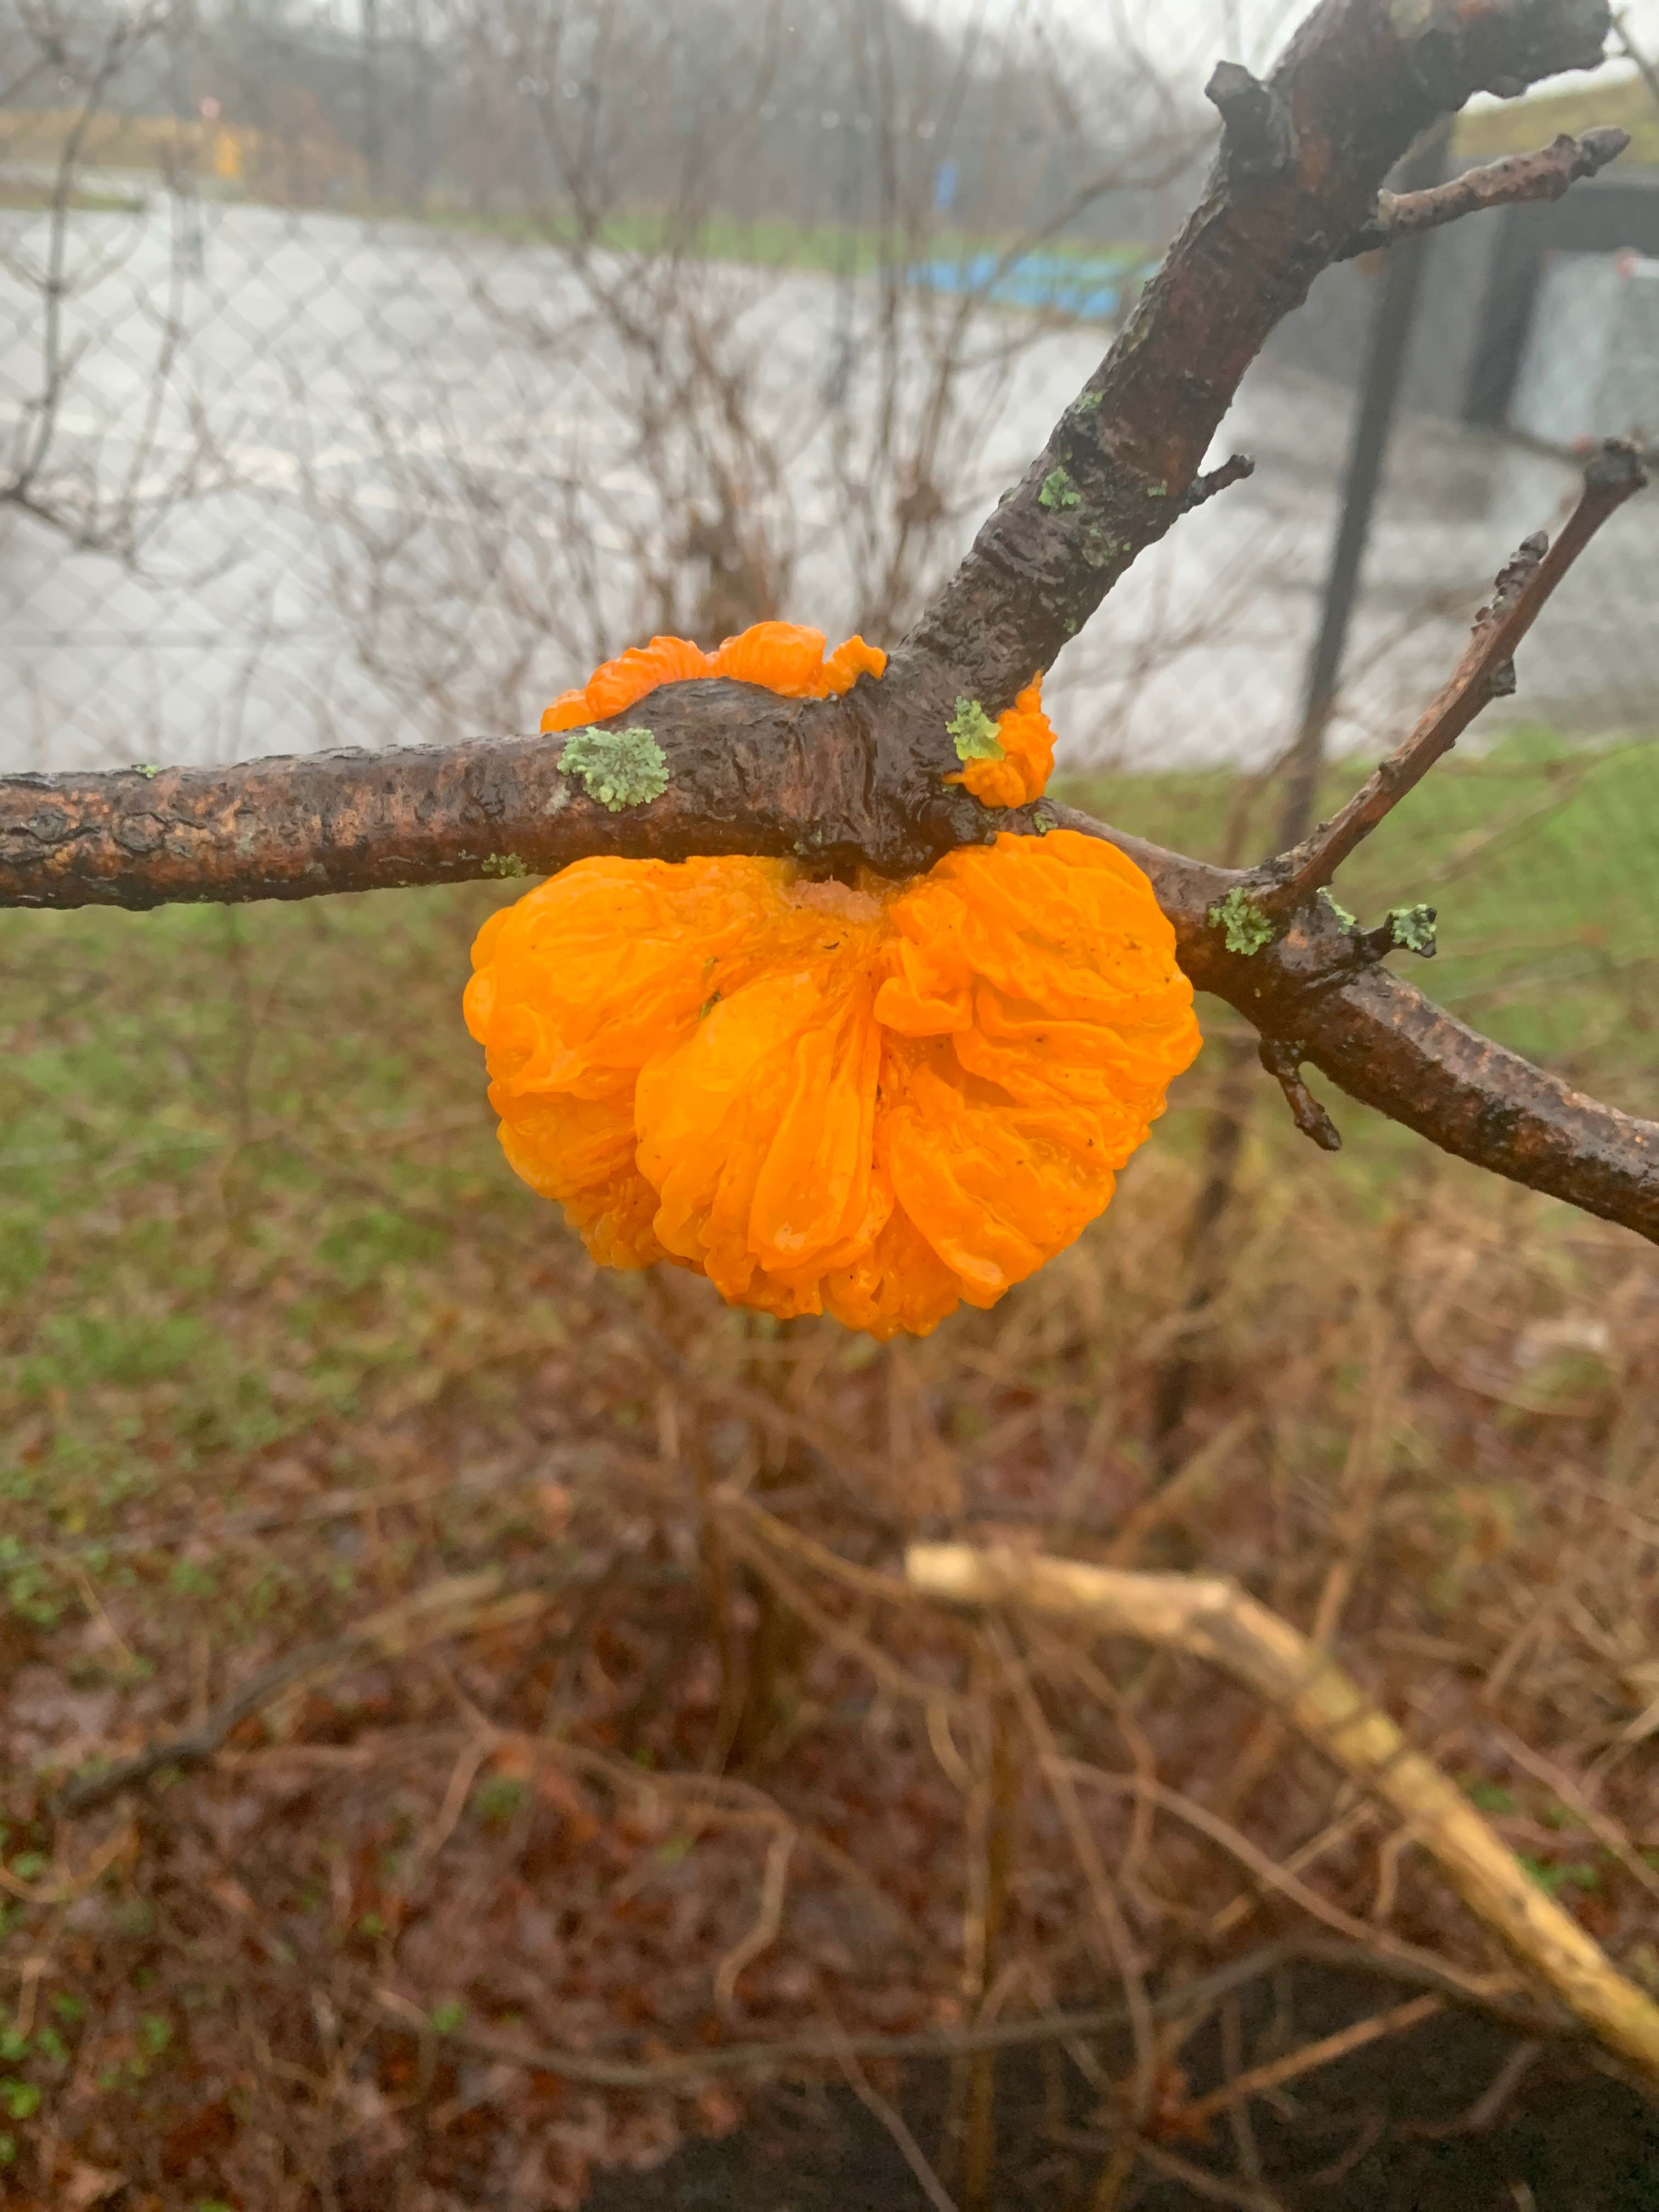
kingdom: Fungi
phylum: Basidiomycota
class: Tremellomycetes
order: Tremellales
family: Tremellaceae
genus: Tremella
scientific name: Tremella mesenterica
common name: gul bævresvamp
